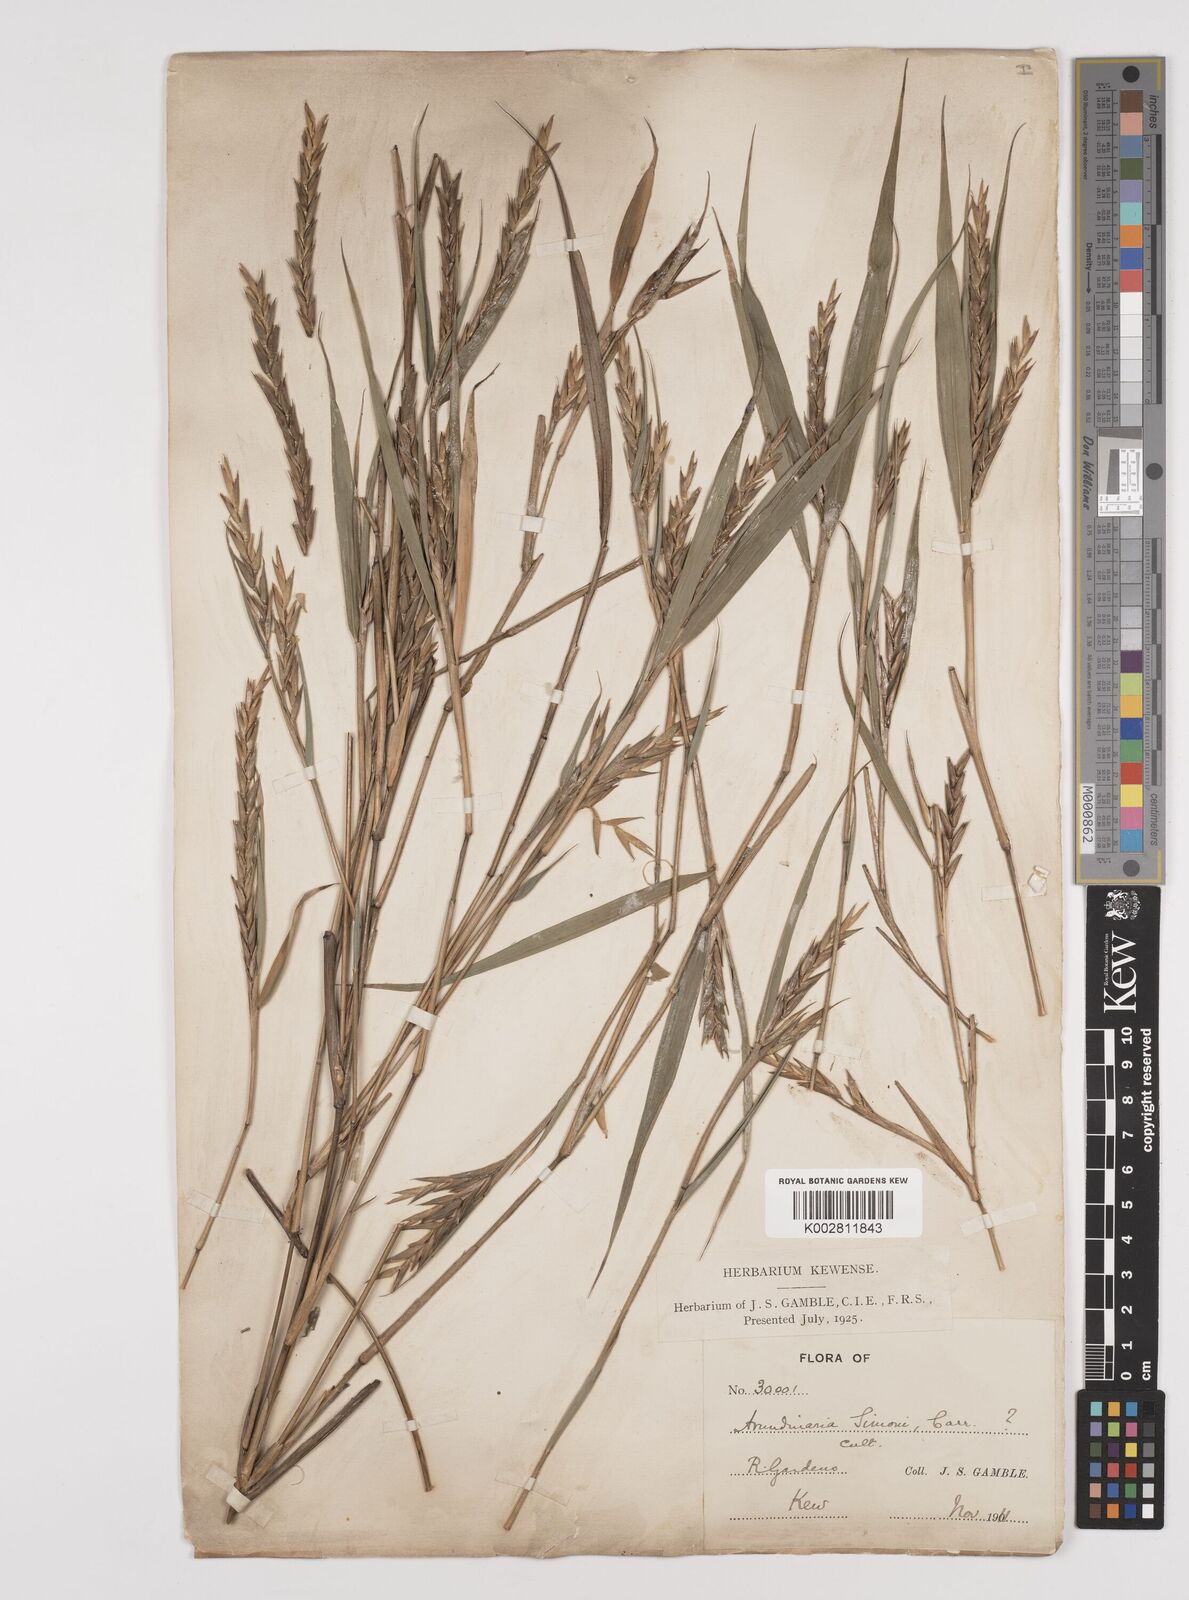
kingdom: Plantae
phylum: Tracheophyta
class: Liliopsida
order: Poales
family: Poaceae
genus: Pleioblastus
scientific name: Pleioblastus simonii
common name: Simon bamboo
